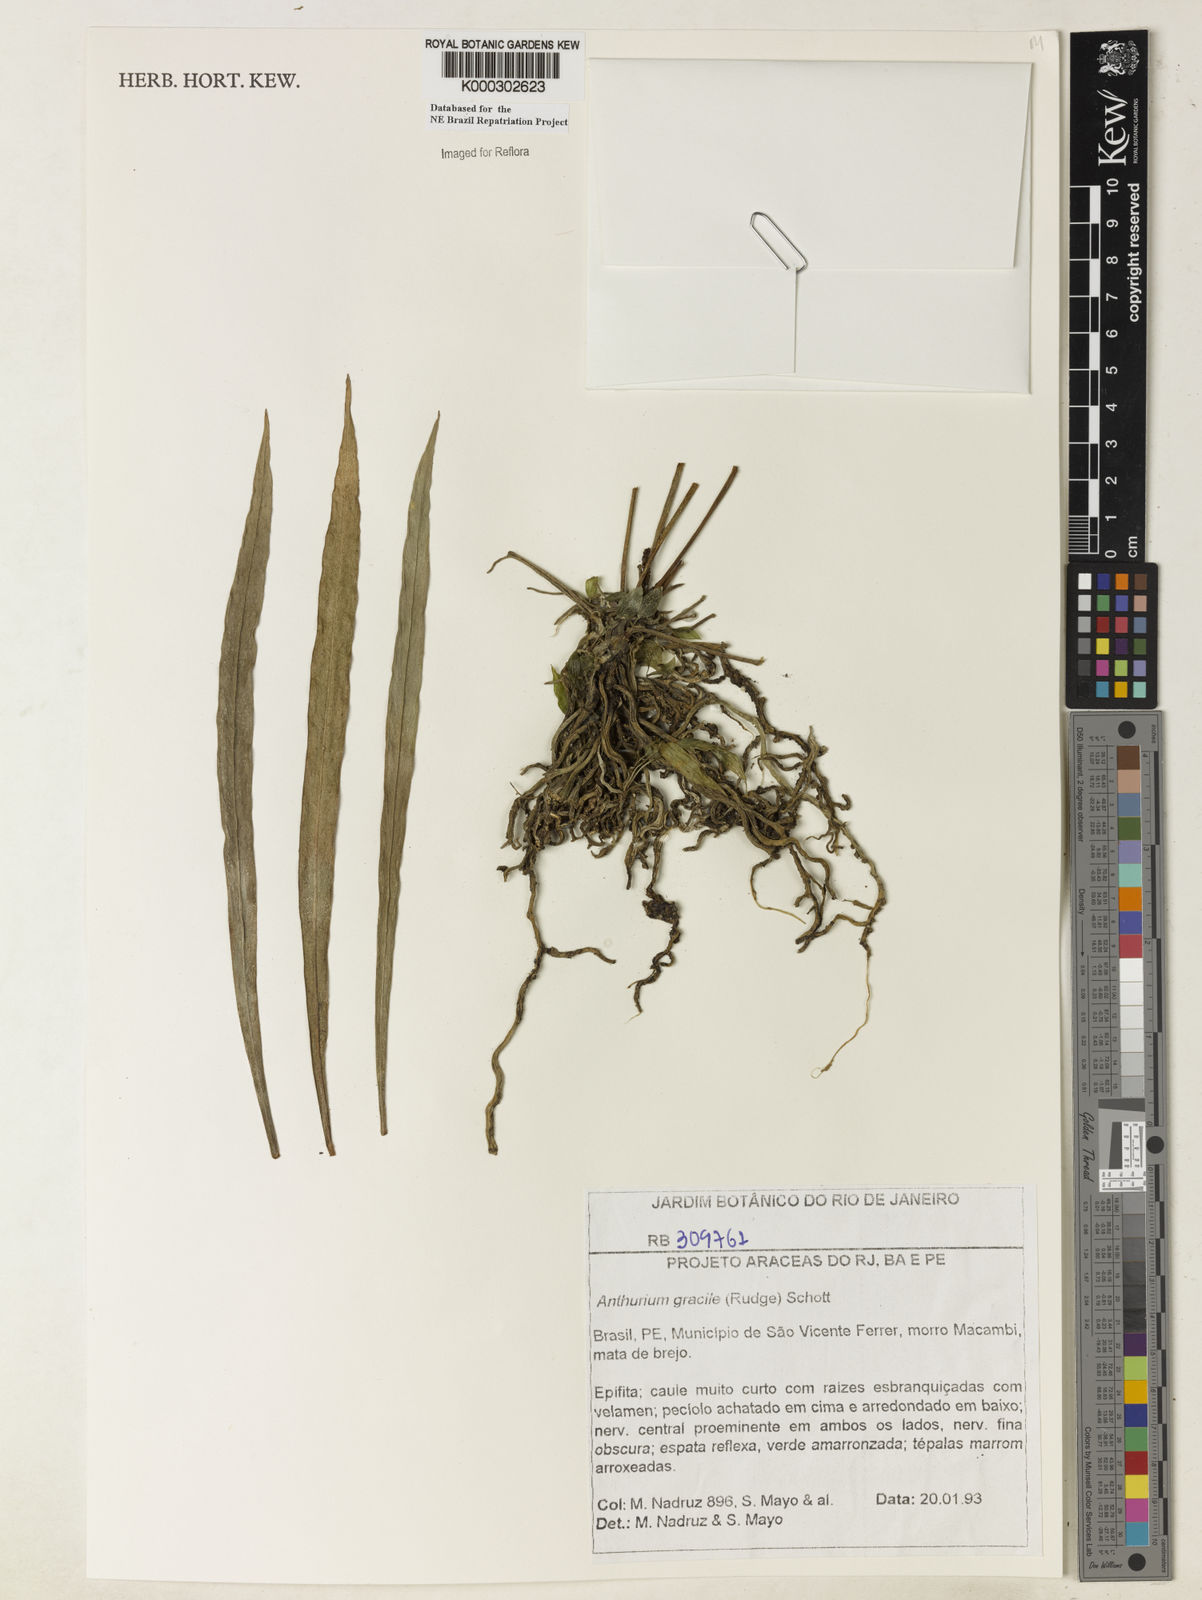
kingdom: Plantae
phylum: Tracheophyta
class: Liliopsida
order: Alismatales
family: Araceae
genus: Anthurium
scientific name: Anthurium
